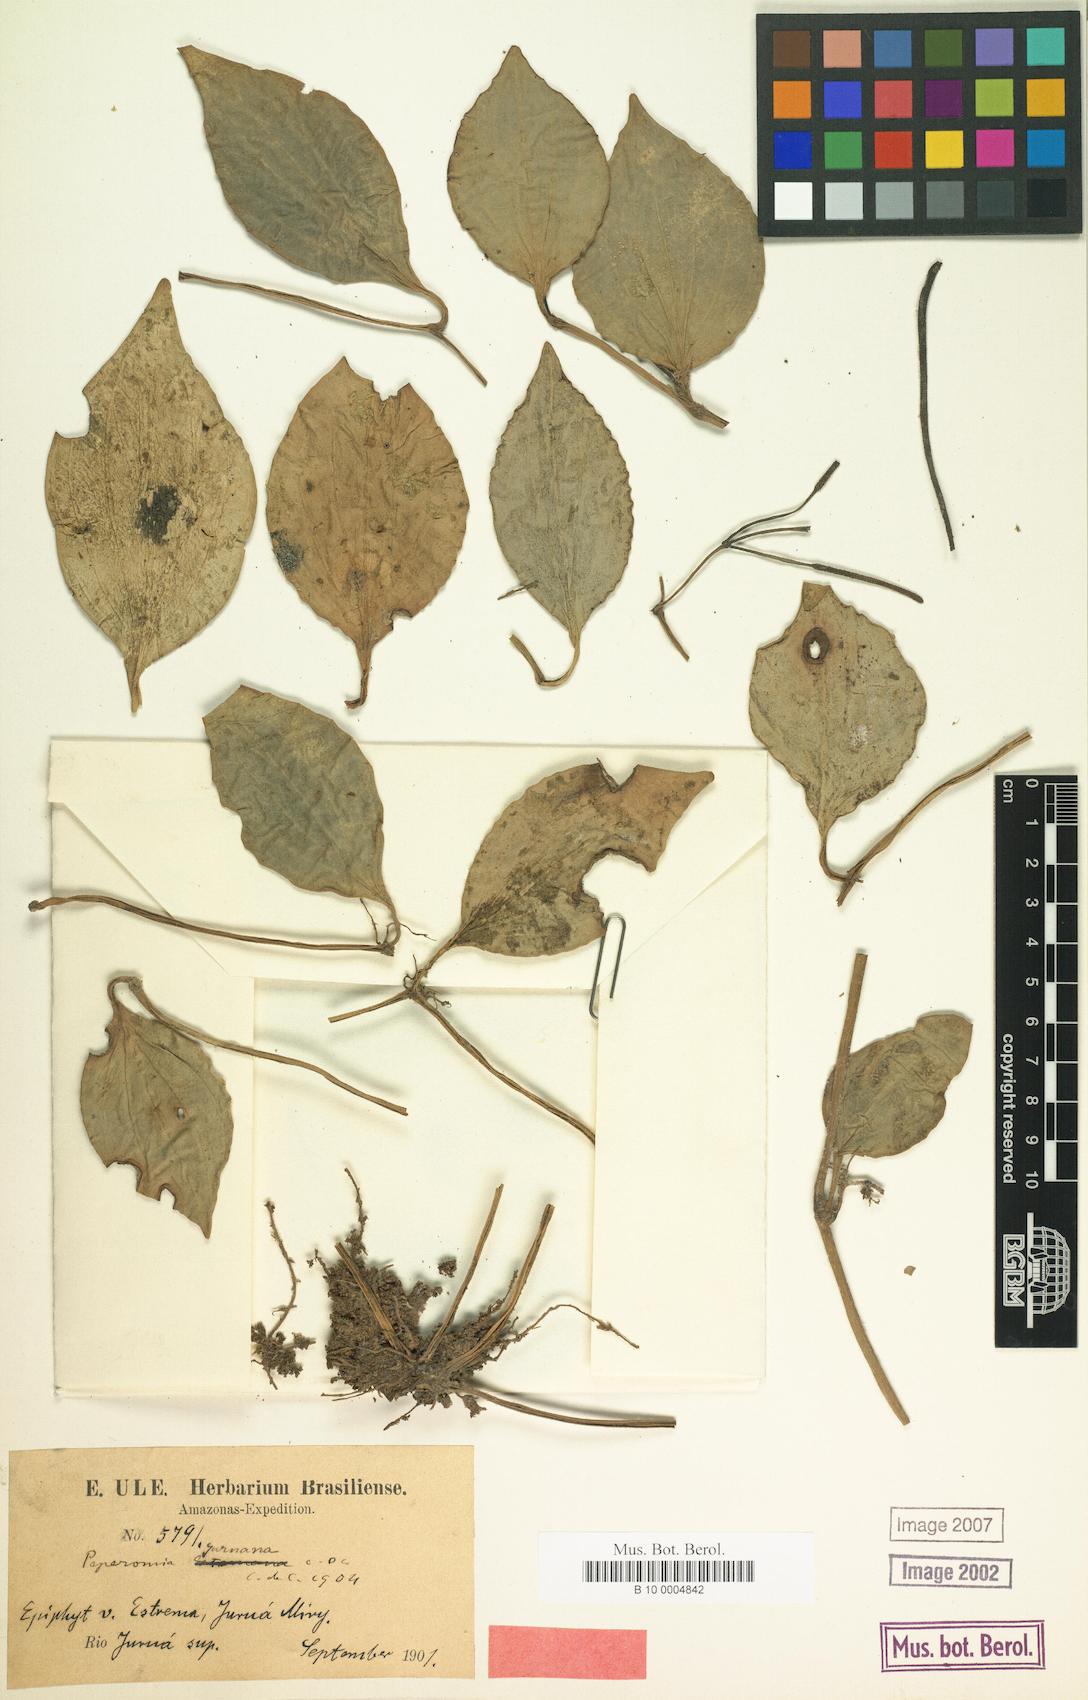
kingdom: Plantae
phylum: Tracheophyta
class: Magnoliopsida
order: Piperales
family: Piperaceae
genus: Peperomia
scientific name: Peperomia juruana
